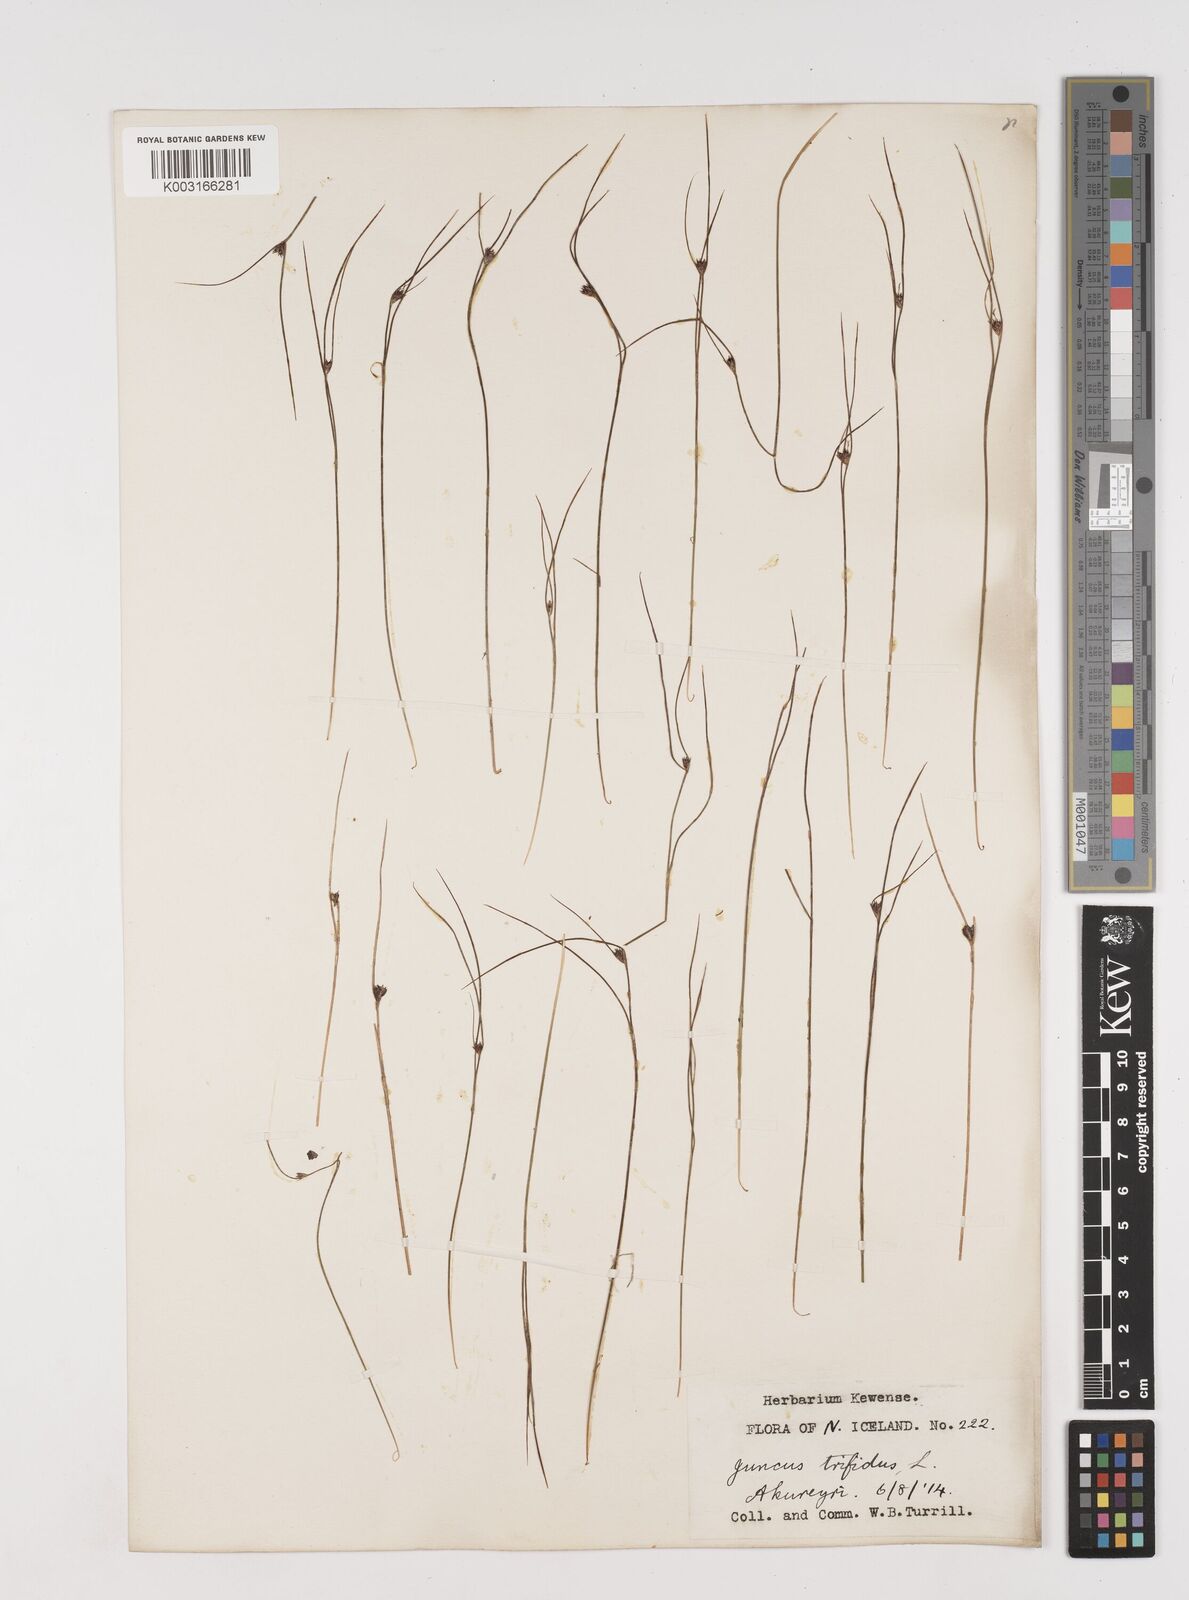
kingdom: Plantae
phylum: Tracheophyta
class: Liliopsida
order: Poales
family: Juncaceae
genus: Oreojuncus
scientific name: Oreojuncus trifidus
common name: Highland rush
